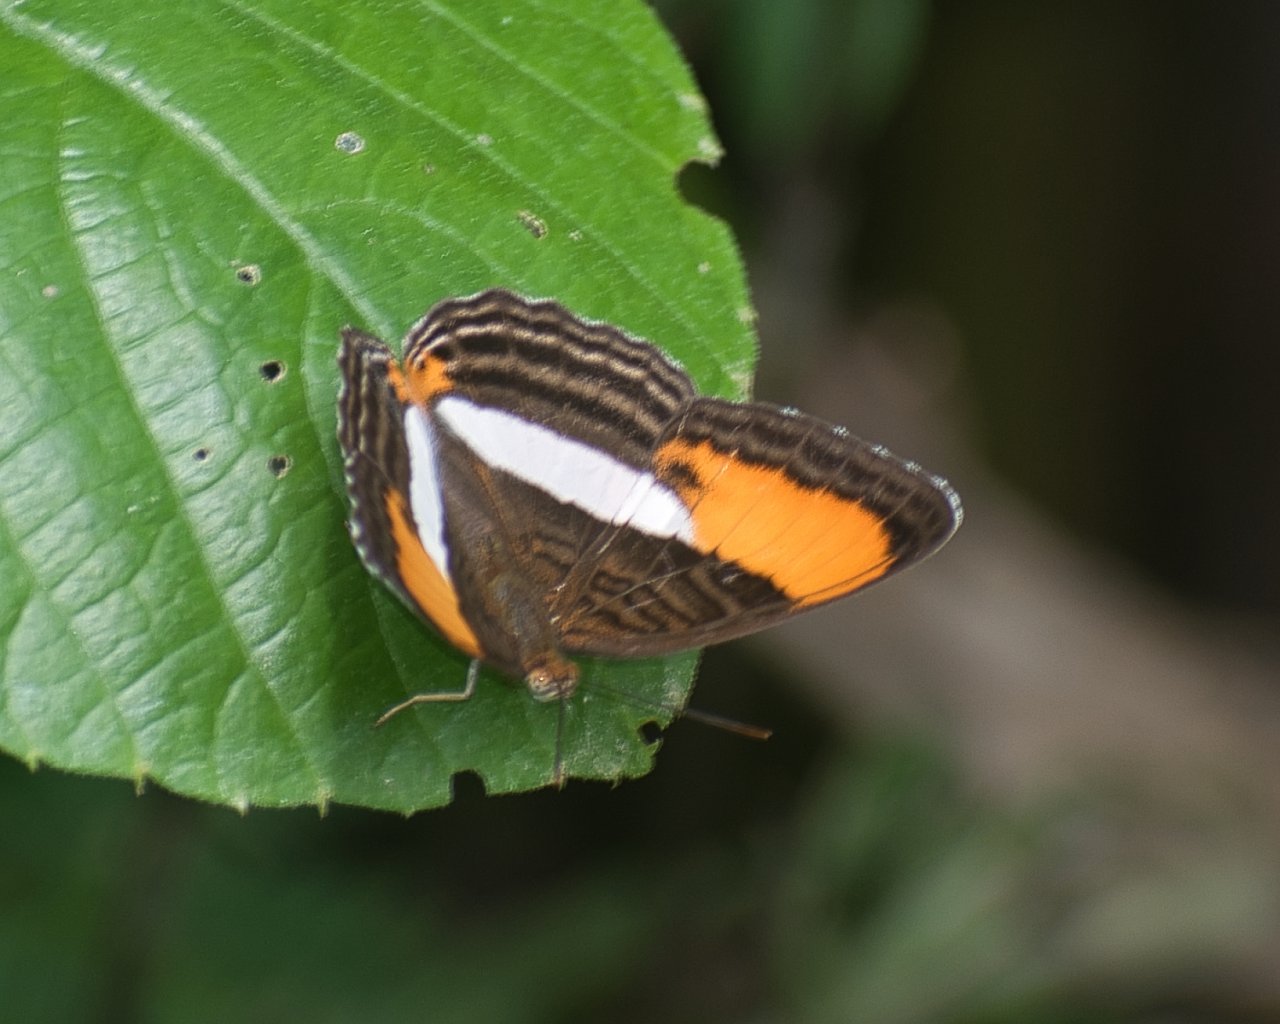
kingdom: Animalia
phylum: Arthropoda
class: Insecta
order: Lepidoptera
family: Nymphalidae
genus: Limenitis
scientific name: Limenitis cytherea
